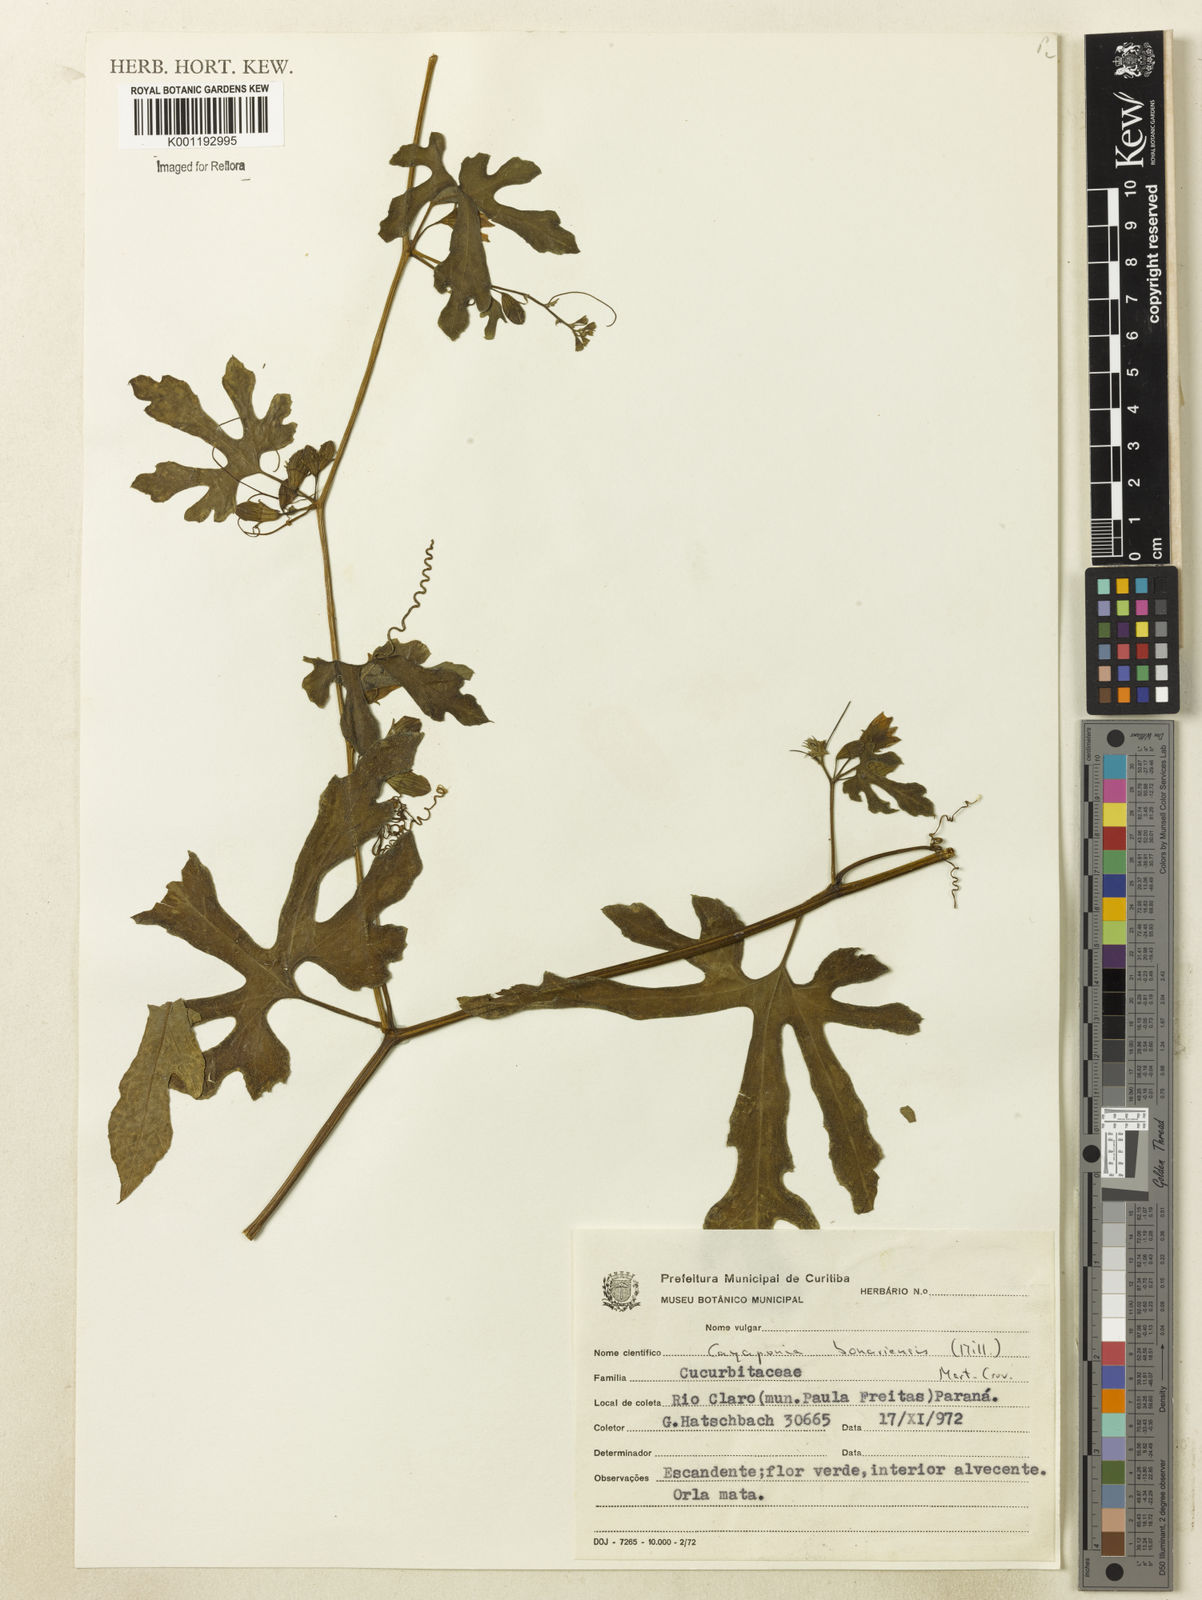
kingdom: Plantae
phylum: Tracheophyta
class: Magnoliopsida
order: Cucurbitales
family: Cucurbitaceae
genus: Cayaponia
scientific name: Cayaponia bonariensis
